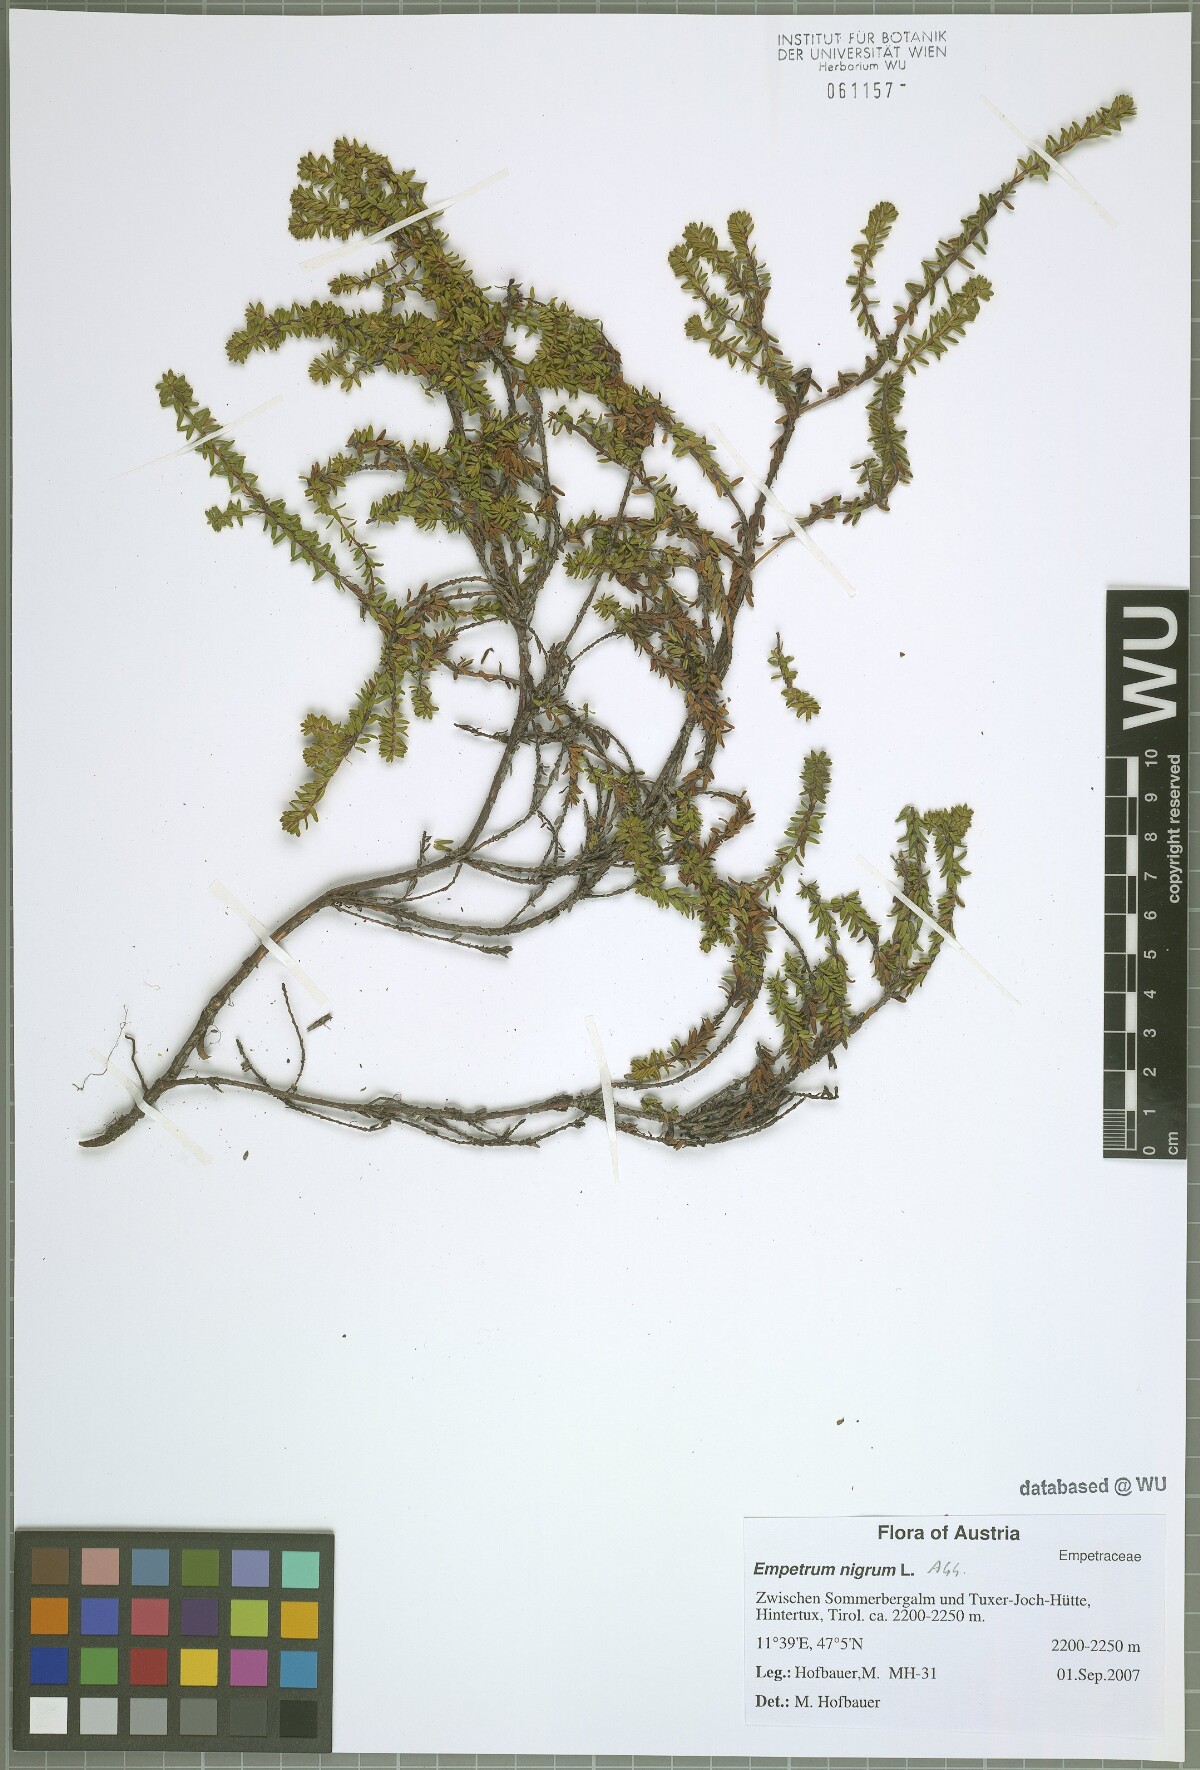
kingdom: Plantae
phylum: Tracheophyta
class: Magnoliopsida
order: Ericales
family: Ericaceae
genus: Empetrum
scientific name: Empetrum nigrum
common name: Black crowberry
